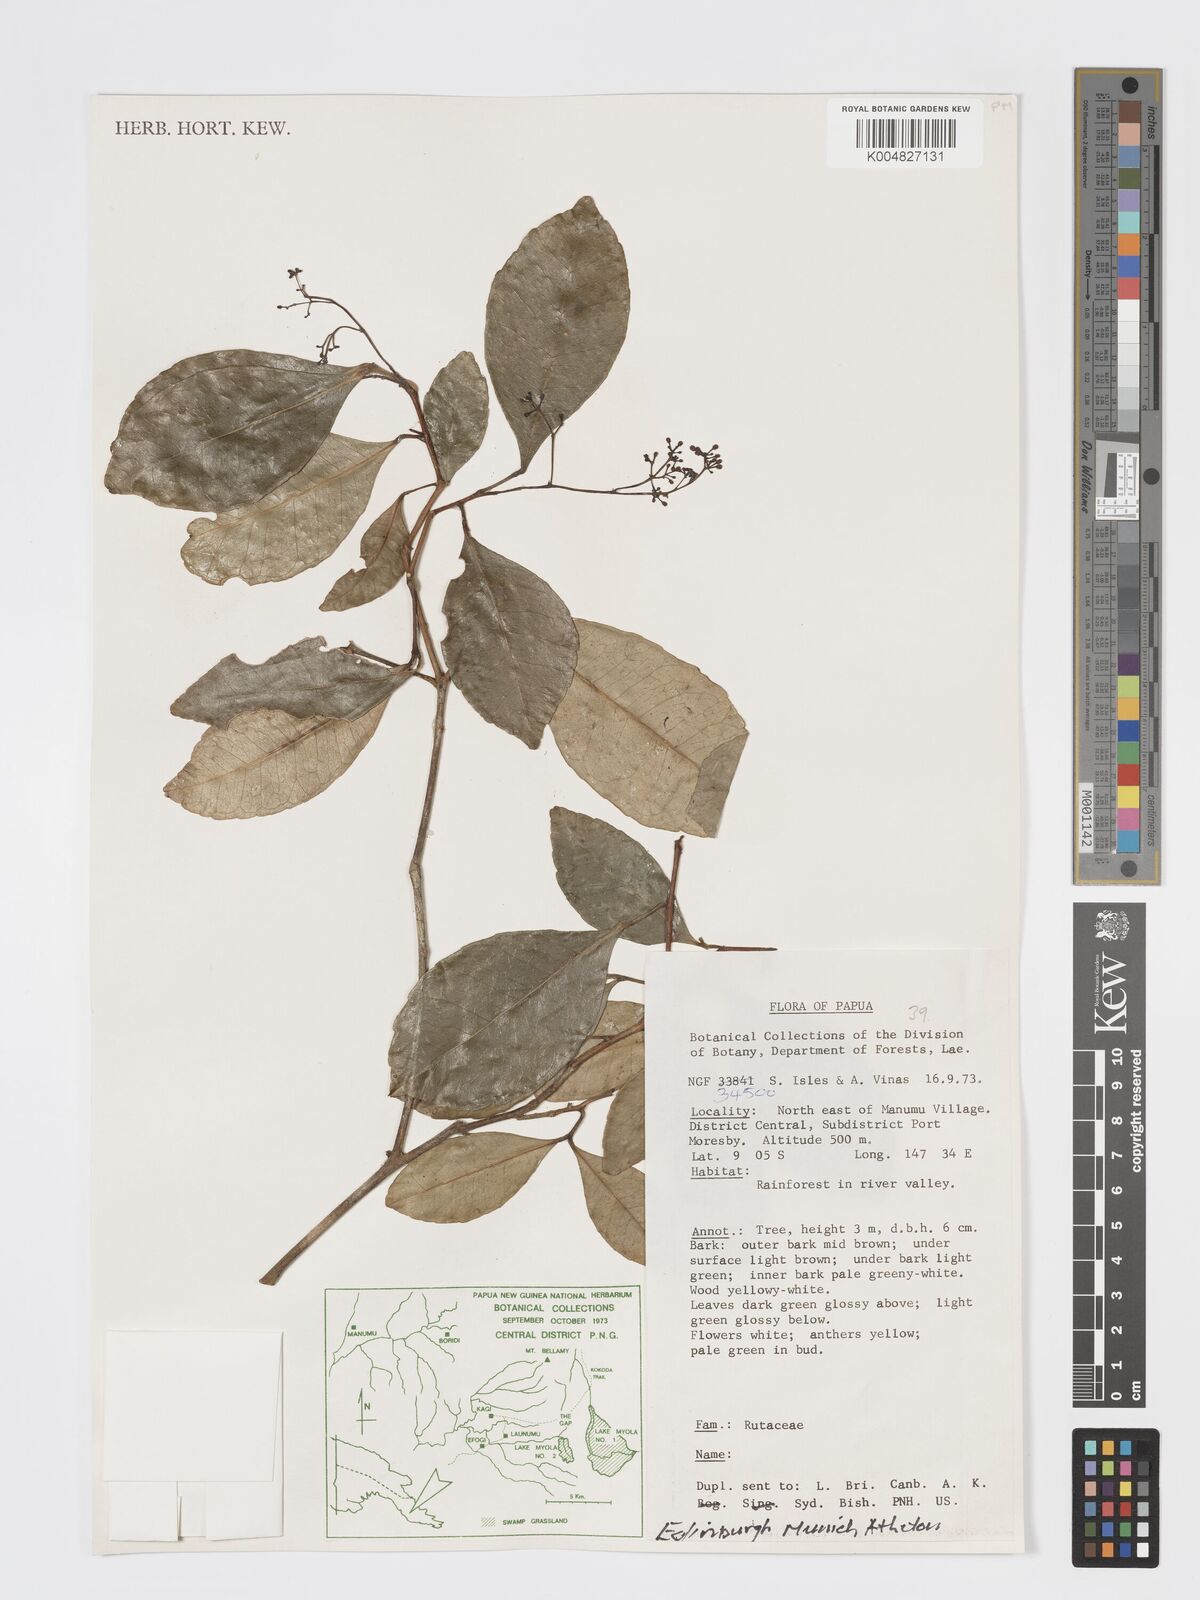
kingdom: Plantae
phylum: Tracheophyta
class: Magnoliopsida
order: Sapindales
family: Rutaceae
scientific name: Rutaceae
